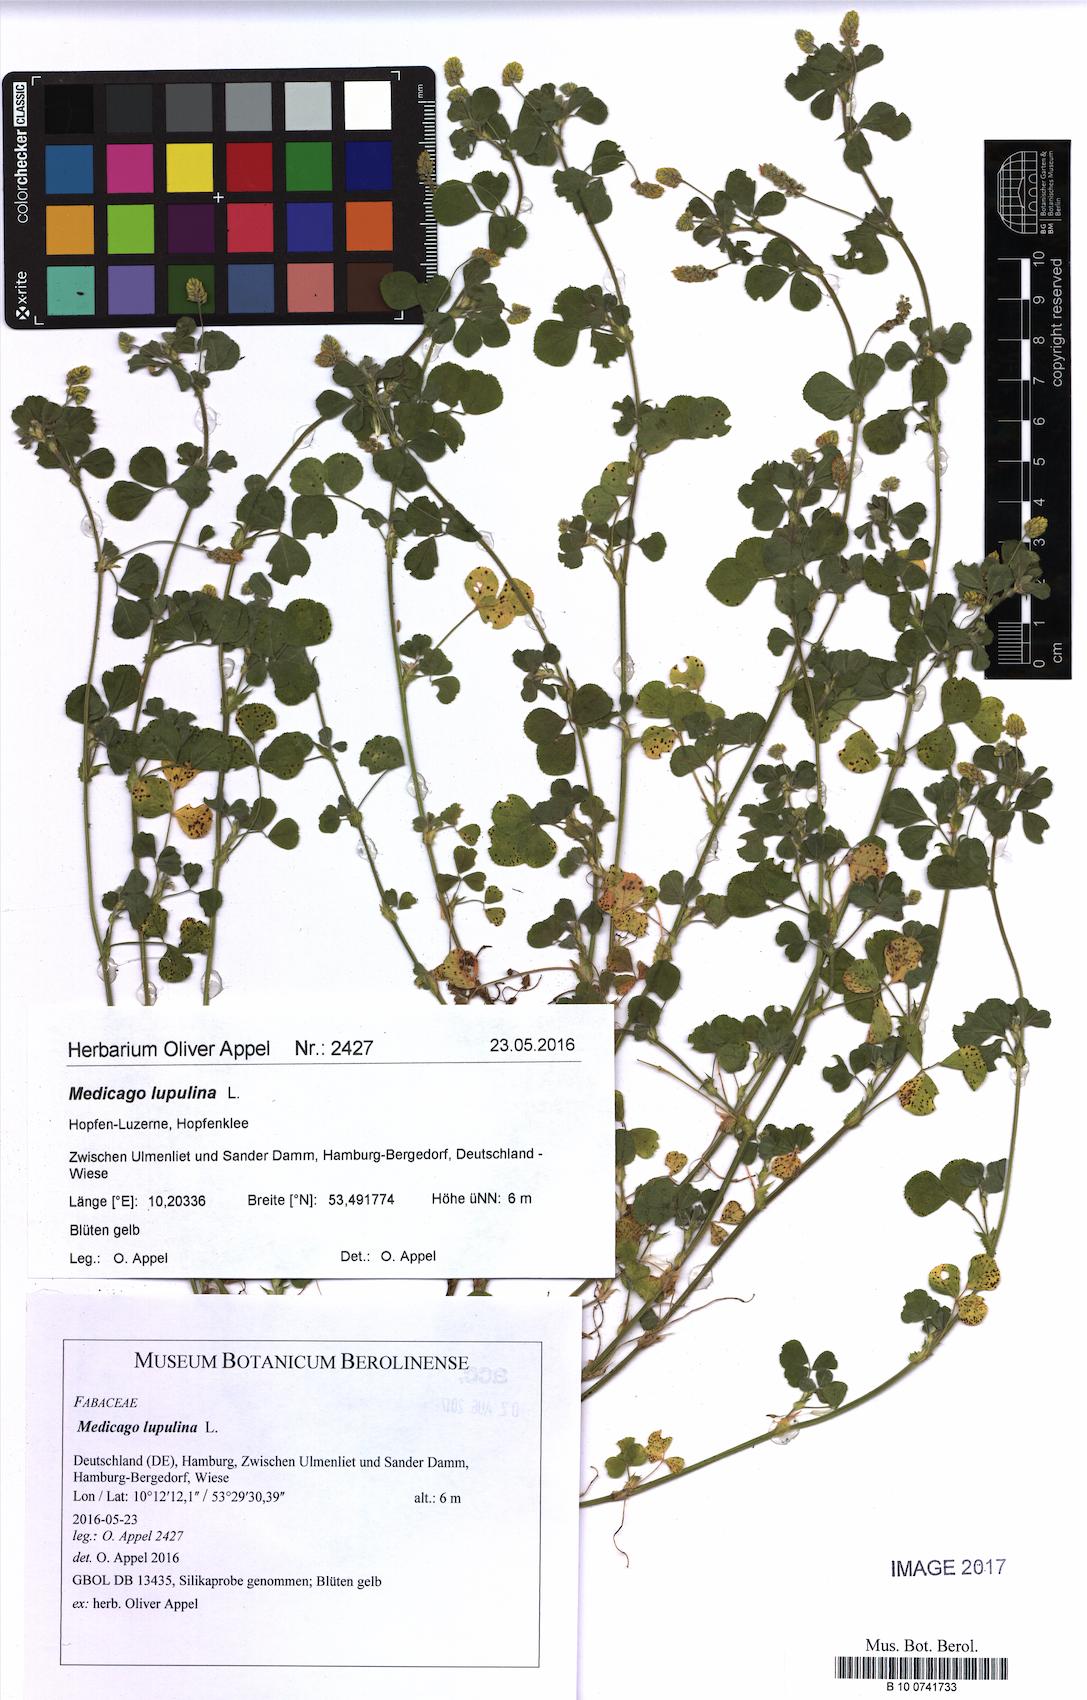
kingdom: Plantae
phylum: Tracheophyta
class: Magnoliopsida
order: Fabales
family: Fabaceae
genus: Medicago
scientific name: Medicago lupulina
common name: Black medick
